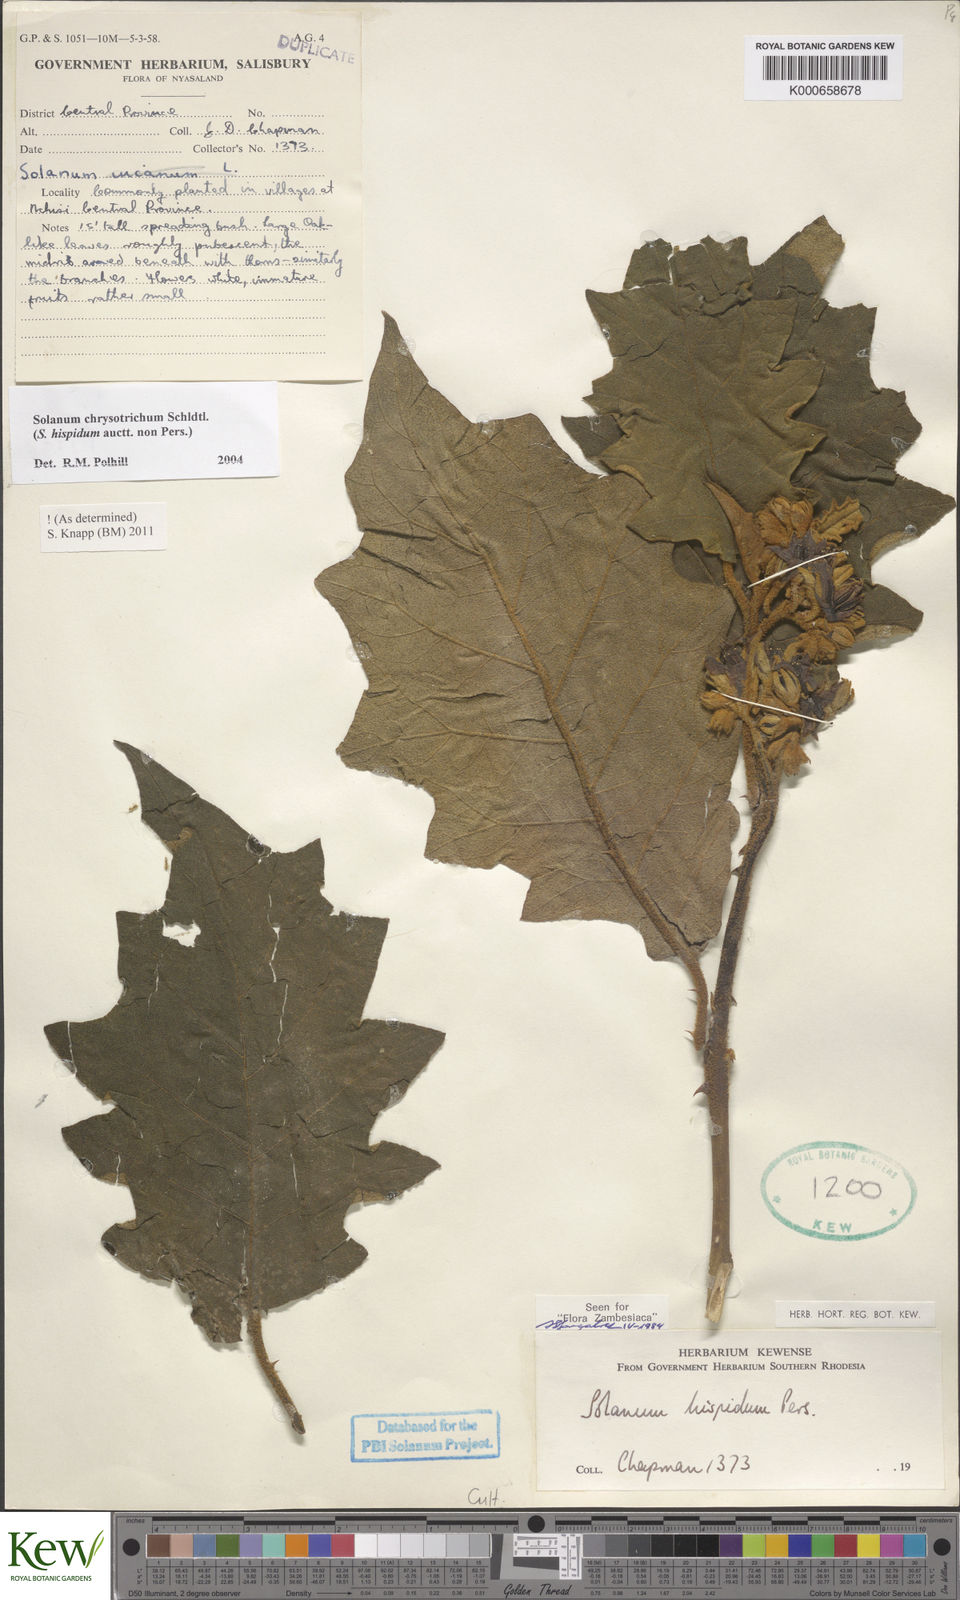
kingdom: Plantae
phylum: Tracheophyta
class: Magnoliopsida
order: Solanales
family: Solanaceae
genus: Solanum
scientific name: Solanum chrysotrichum
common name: Nightshade
